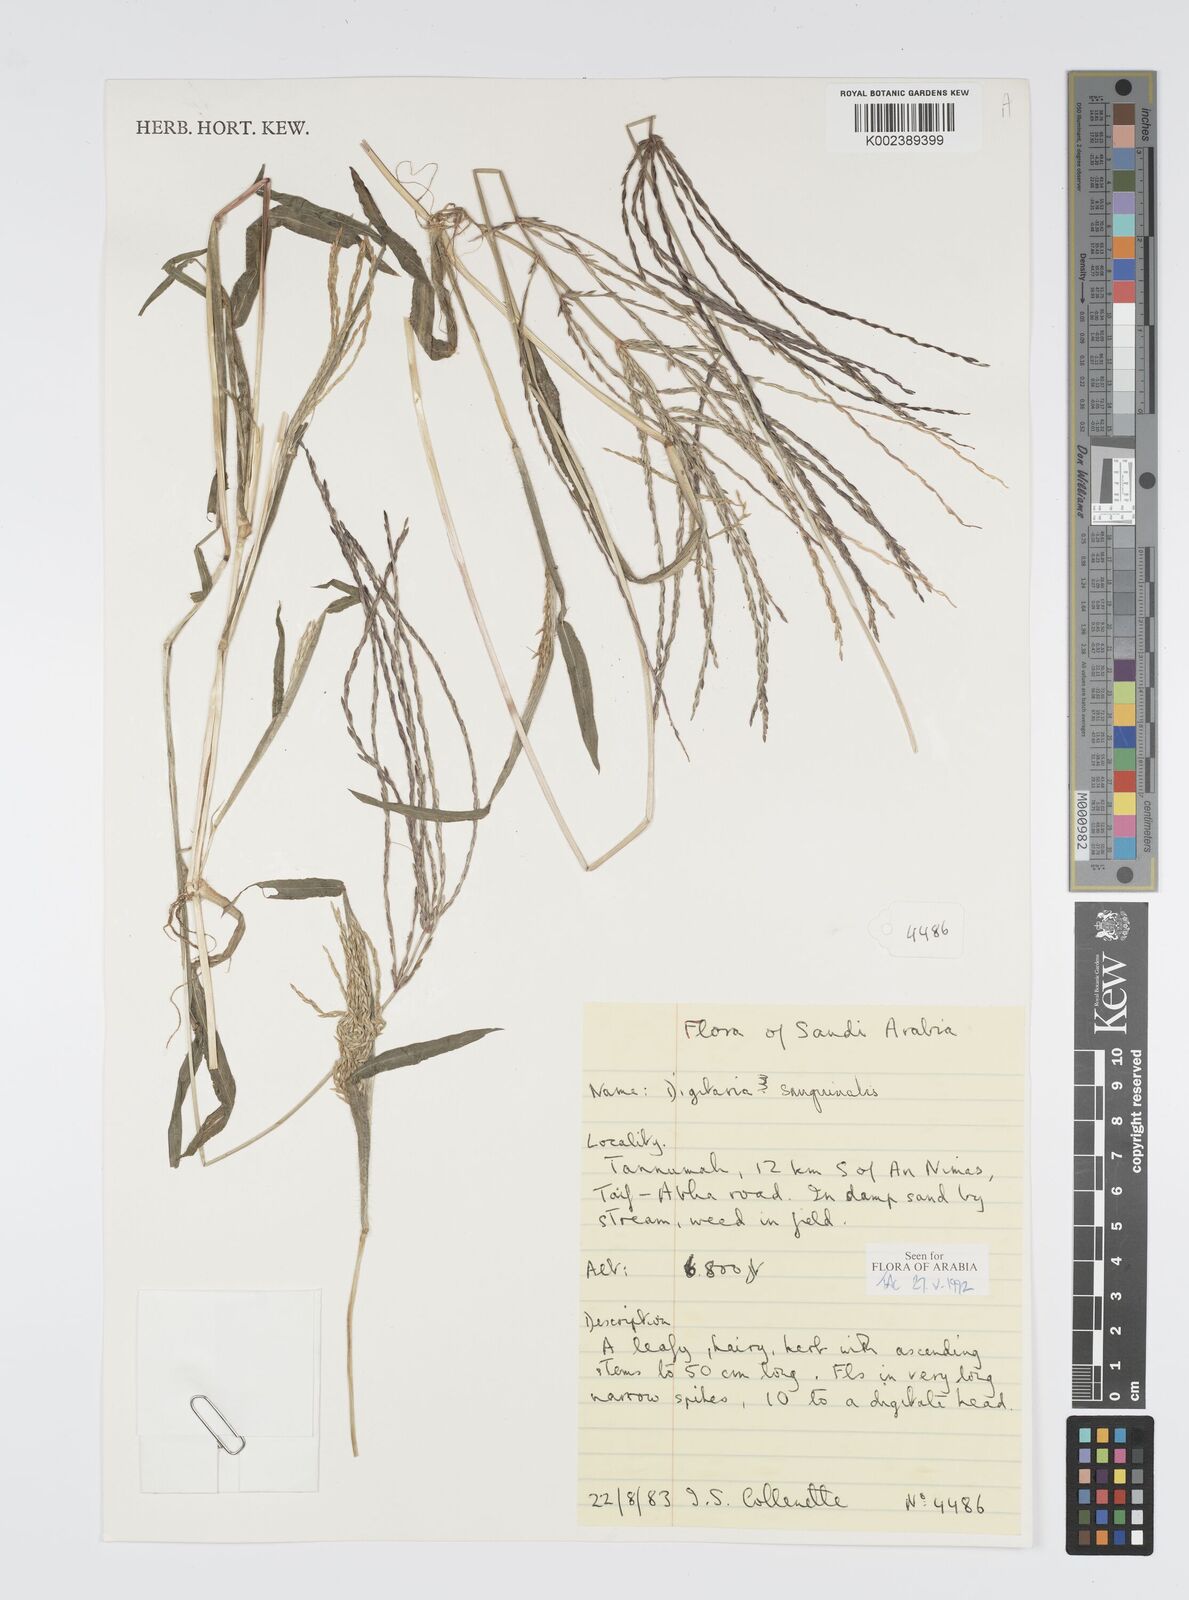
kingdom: Plantae
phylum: Tracheophyta
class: Liliopsida
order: Poales
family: Poaceae
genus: Digitaria
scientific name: Digitaria sanguinalis
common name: Hairy crabgrass
